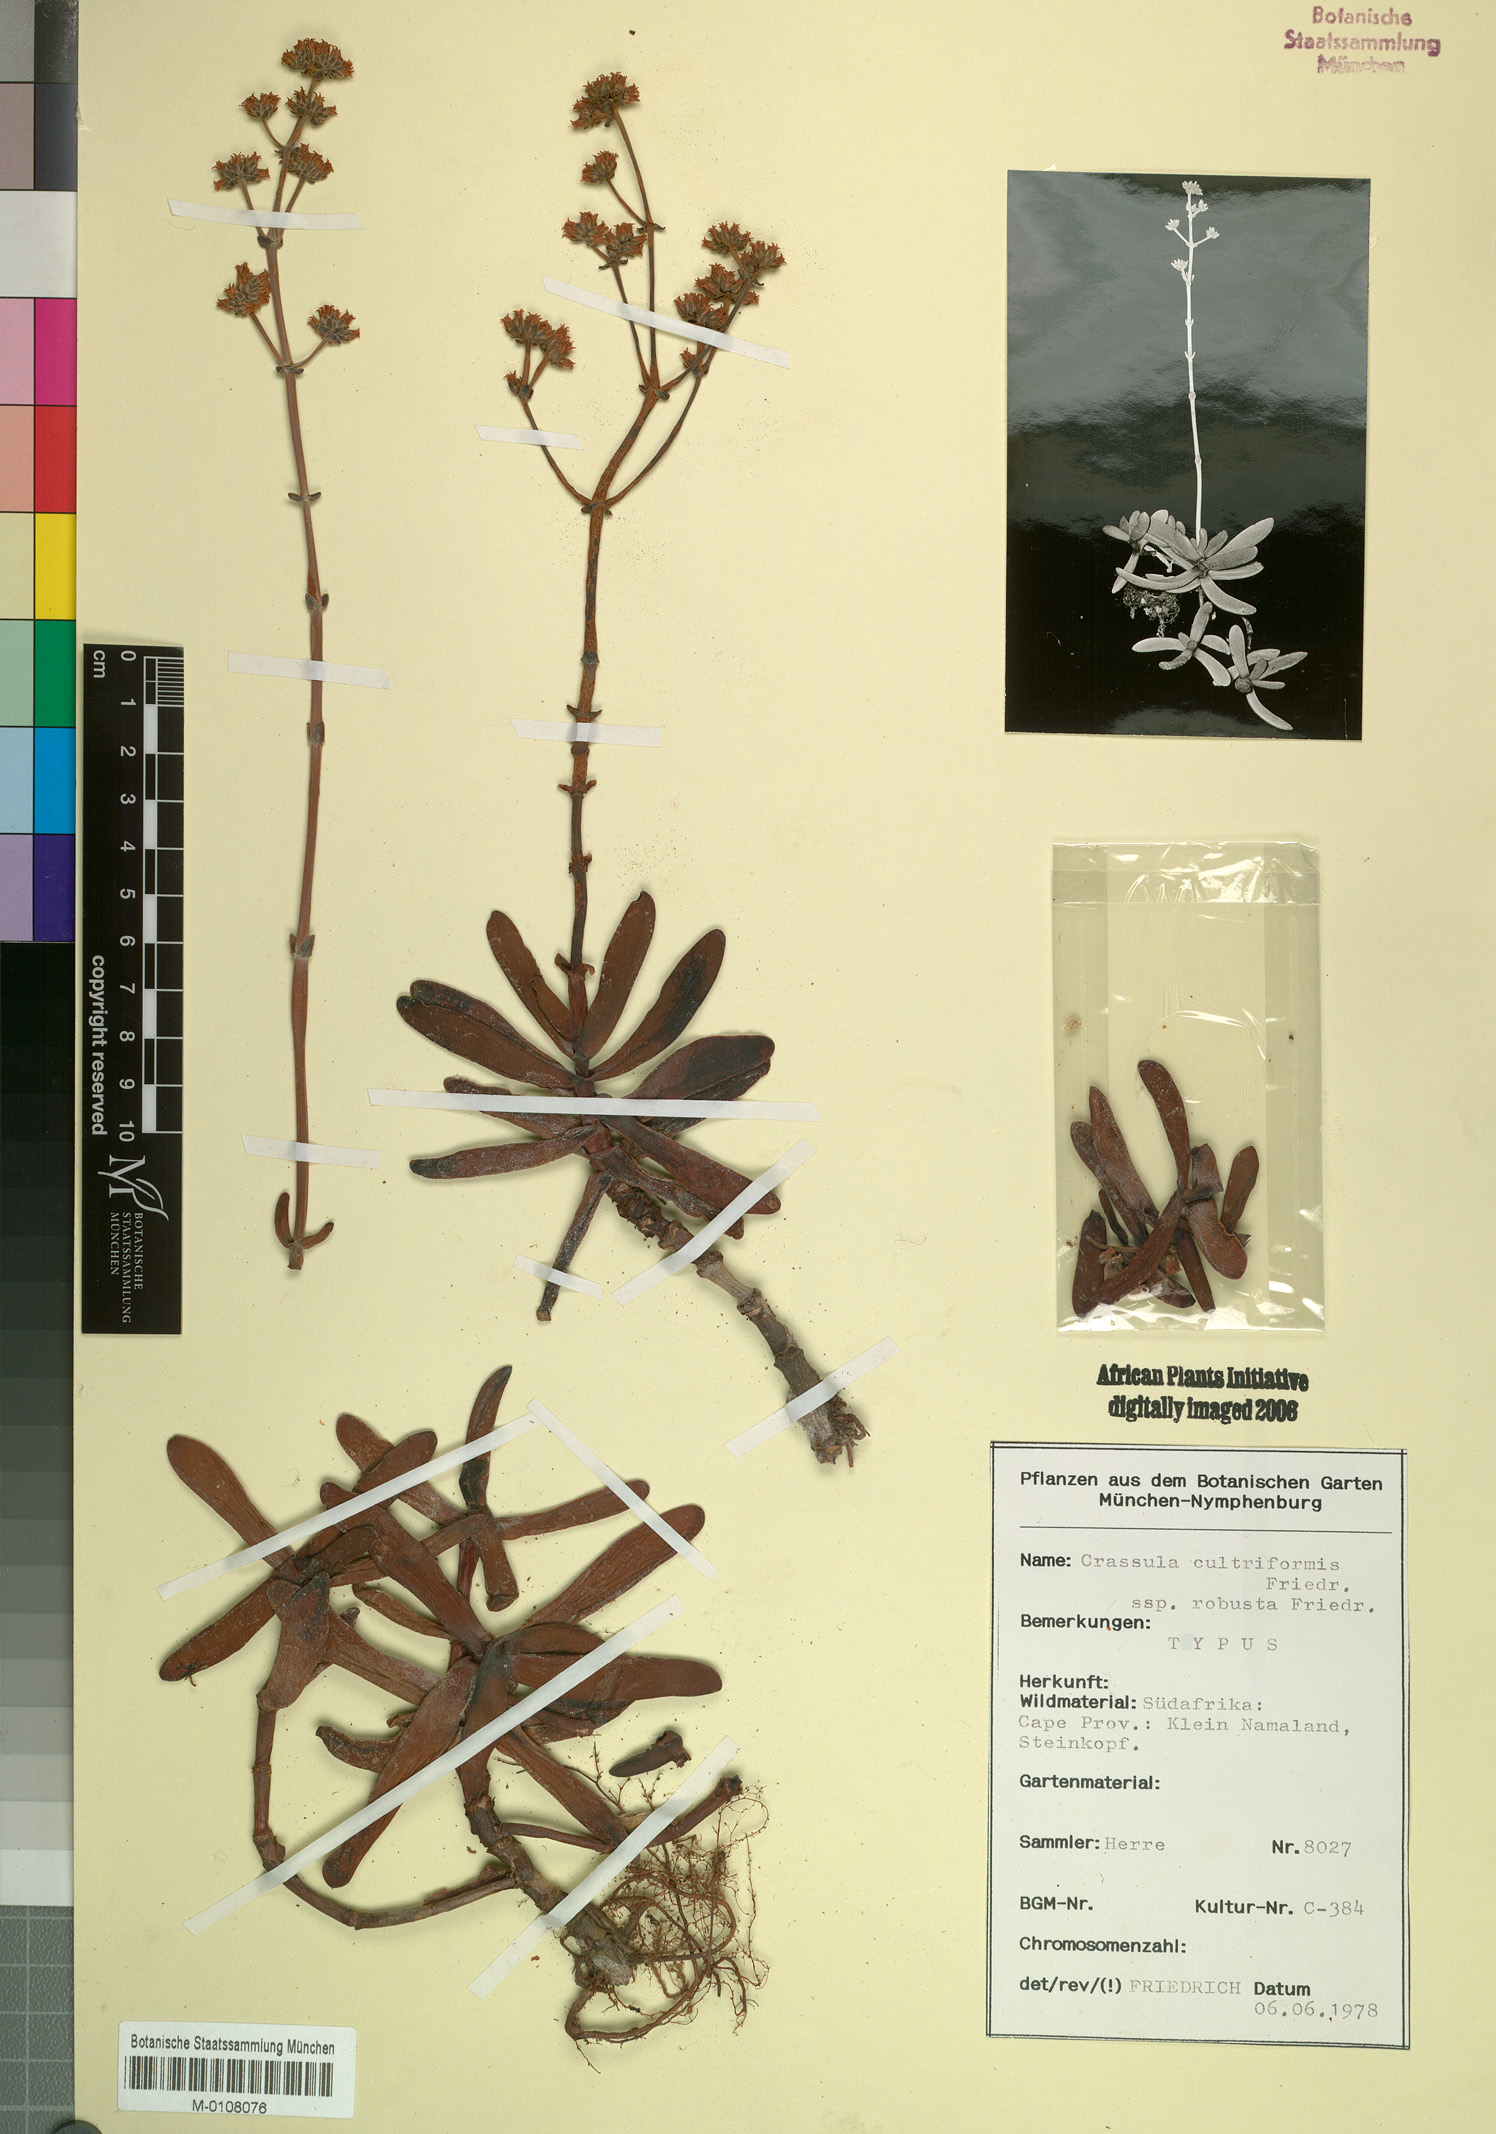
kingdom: Plantae
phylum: Tracheophyta
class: Magnoliopsida
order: Saxifragales
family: Crassulaceae
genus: Crassula
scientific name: Crassula atropurpurea
